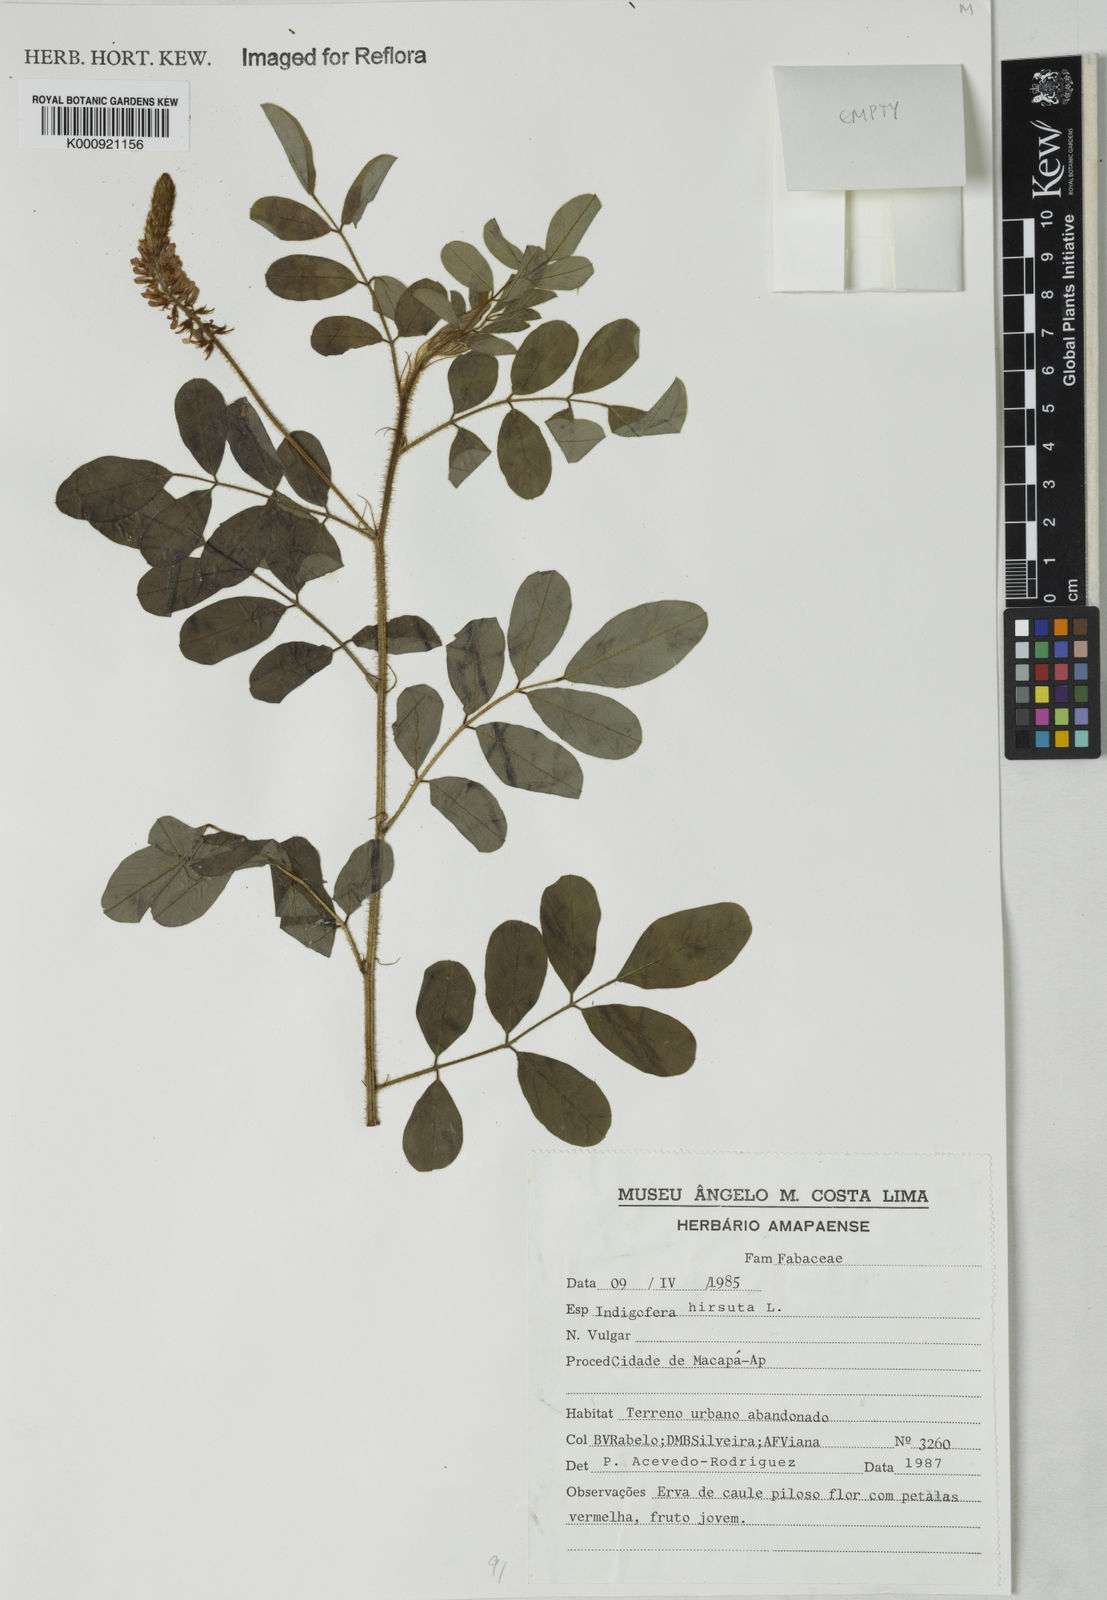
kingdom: Plantae
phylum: Tracheophyta
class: Magnoliopsida
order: Fabales
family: Fabaceae
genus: Indigofera
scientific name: Indigofera
